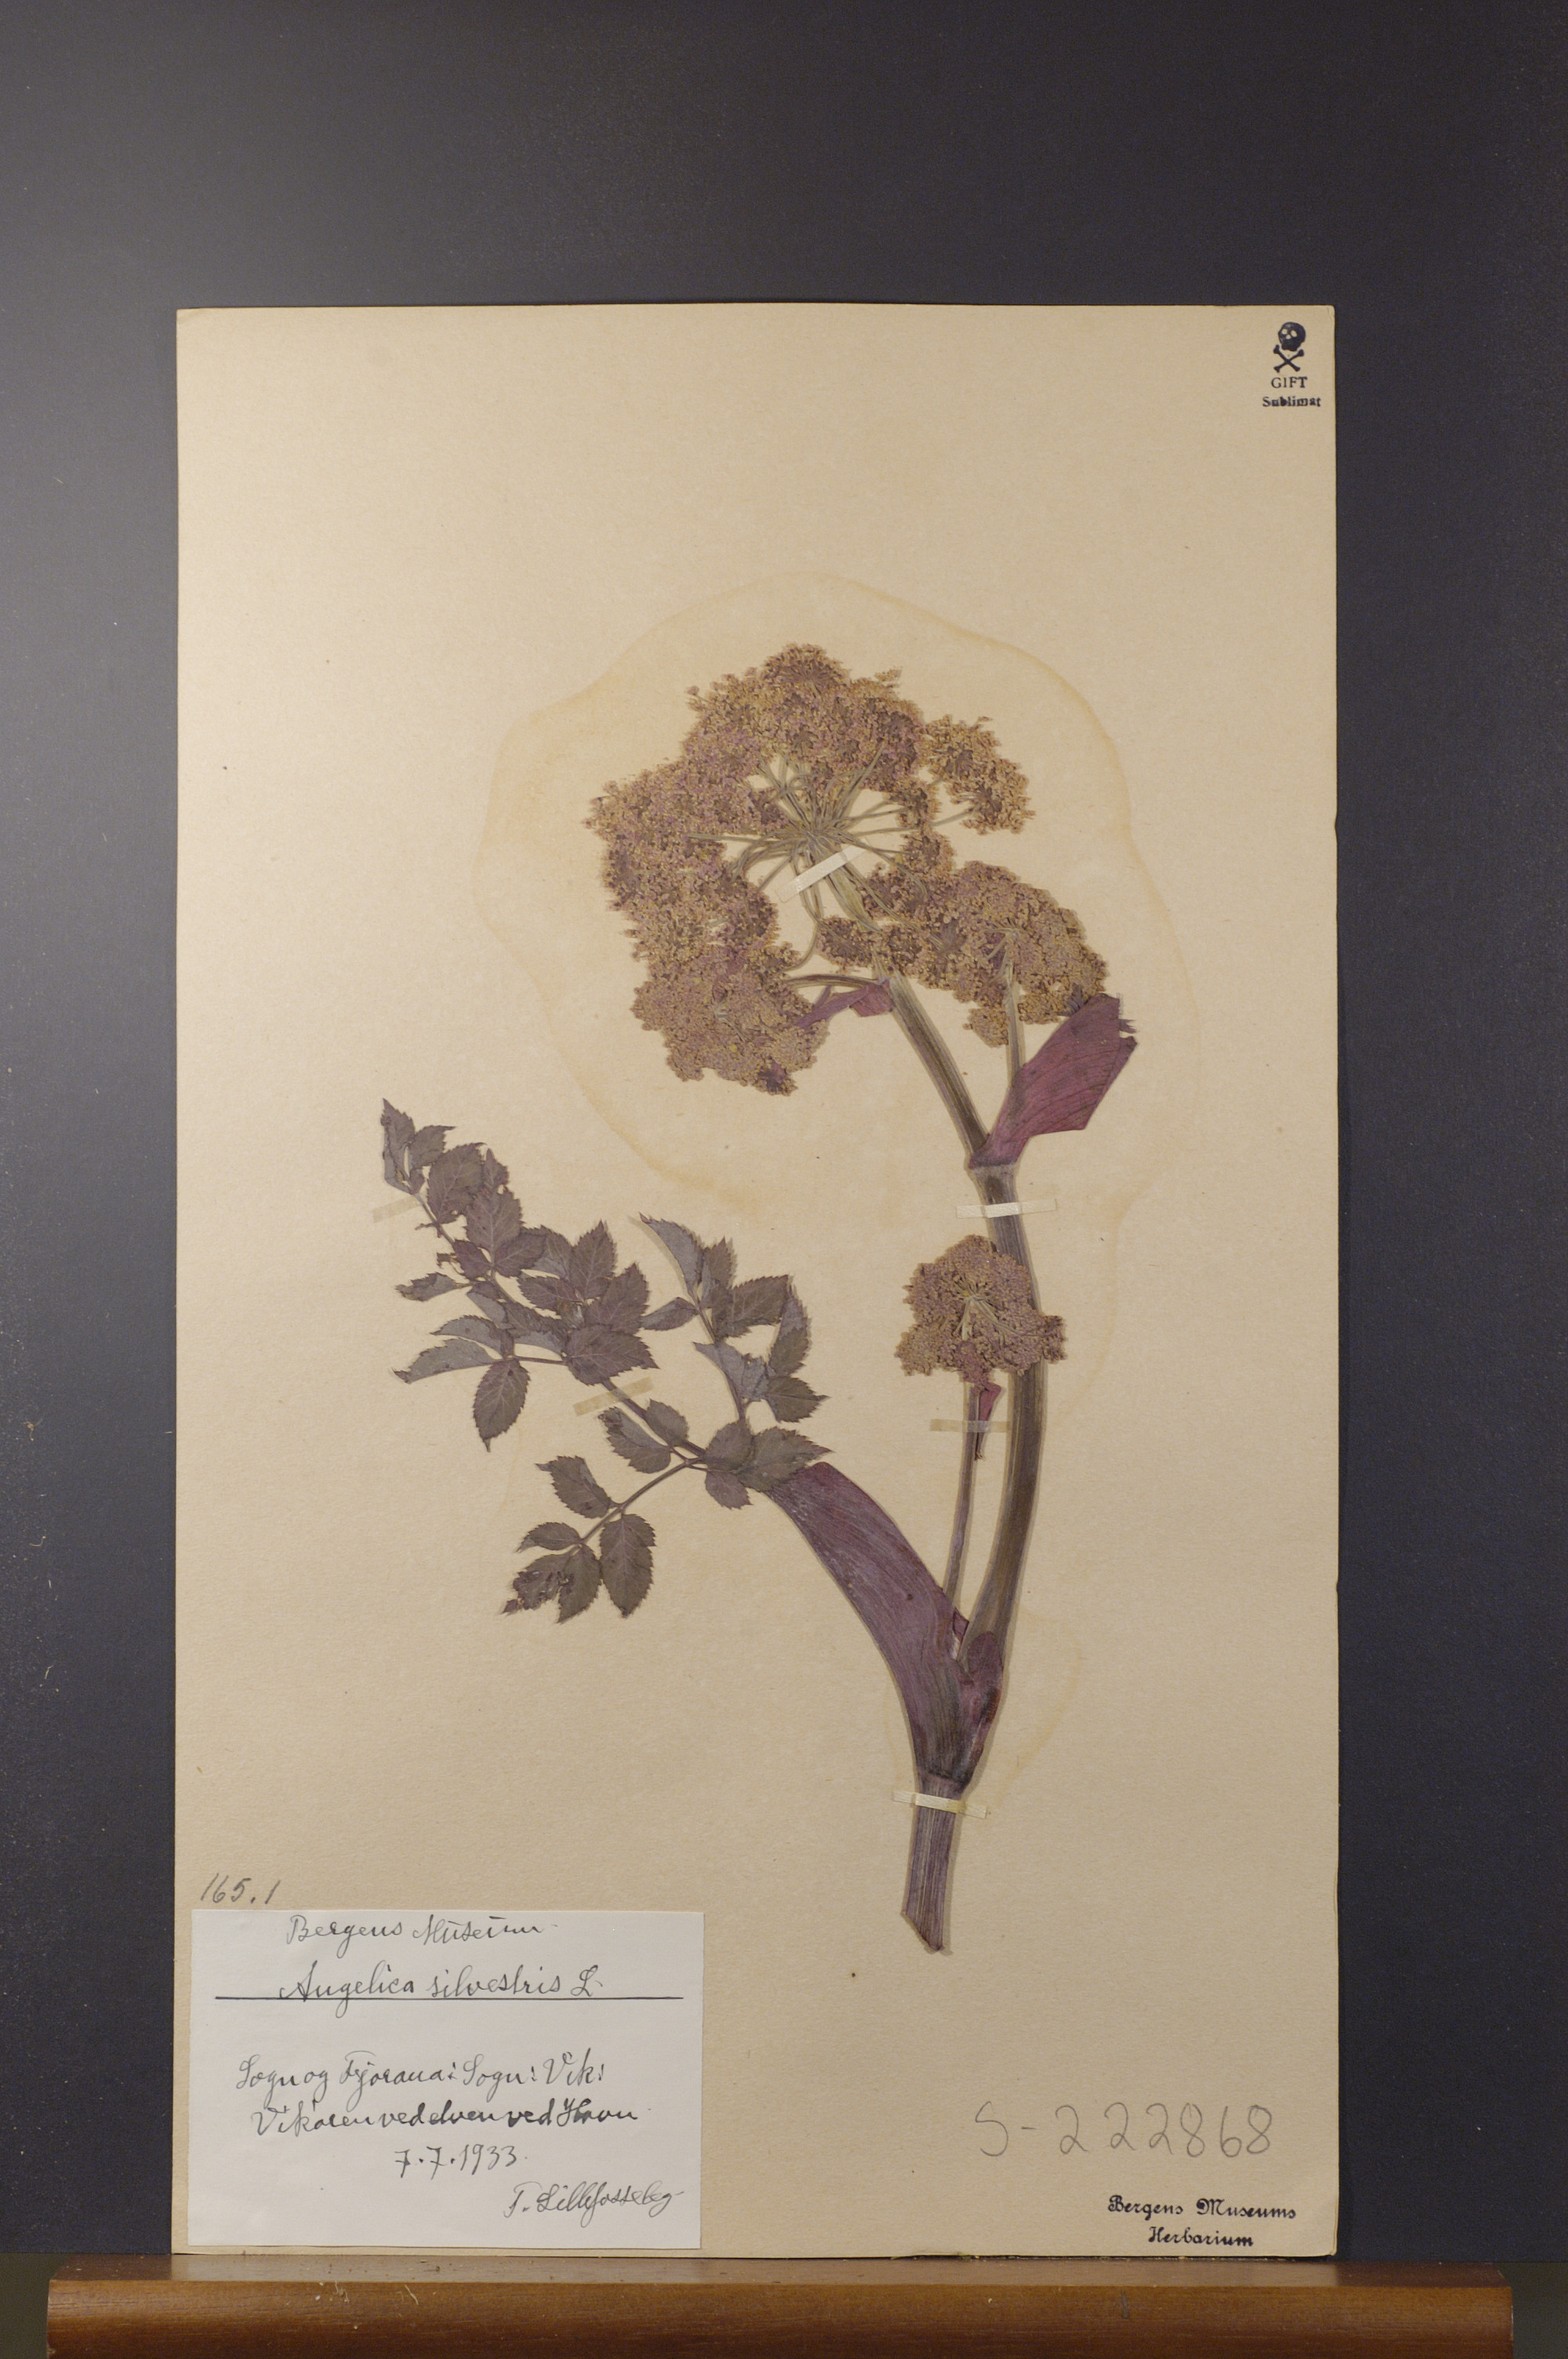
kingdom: Plantae
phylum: Tracheophyta
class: Magnoliopsida
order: Apiales
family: Apiaceae
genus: Angelica
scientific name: Angelica sylvestris
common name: Wild angelica
